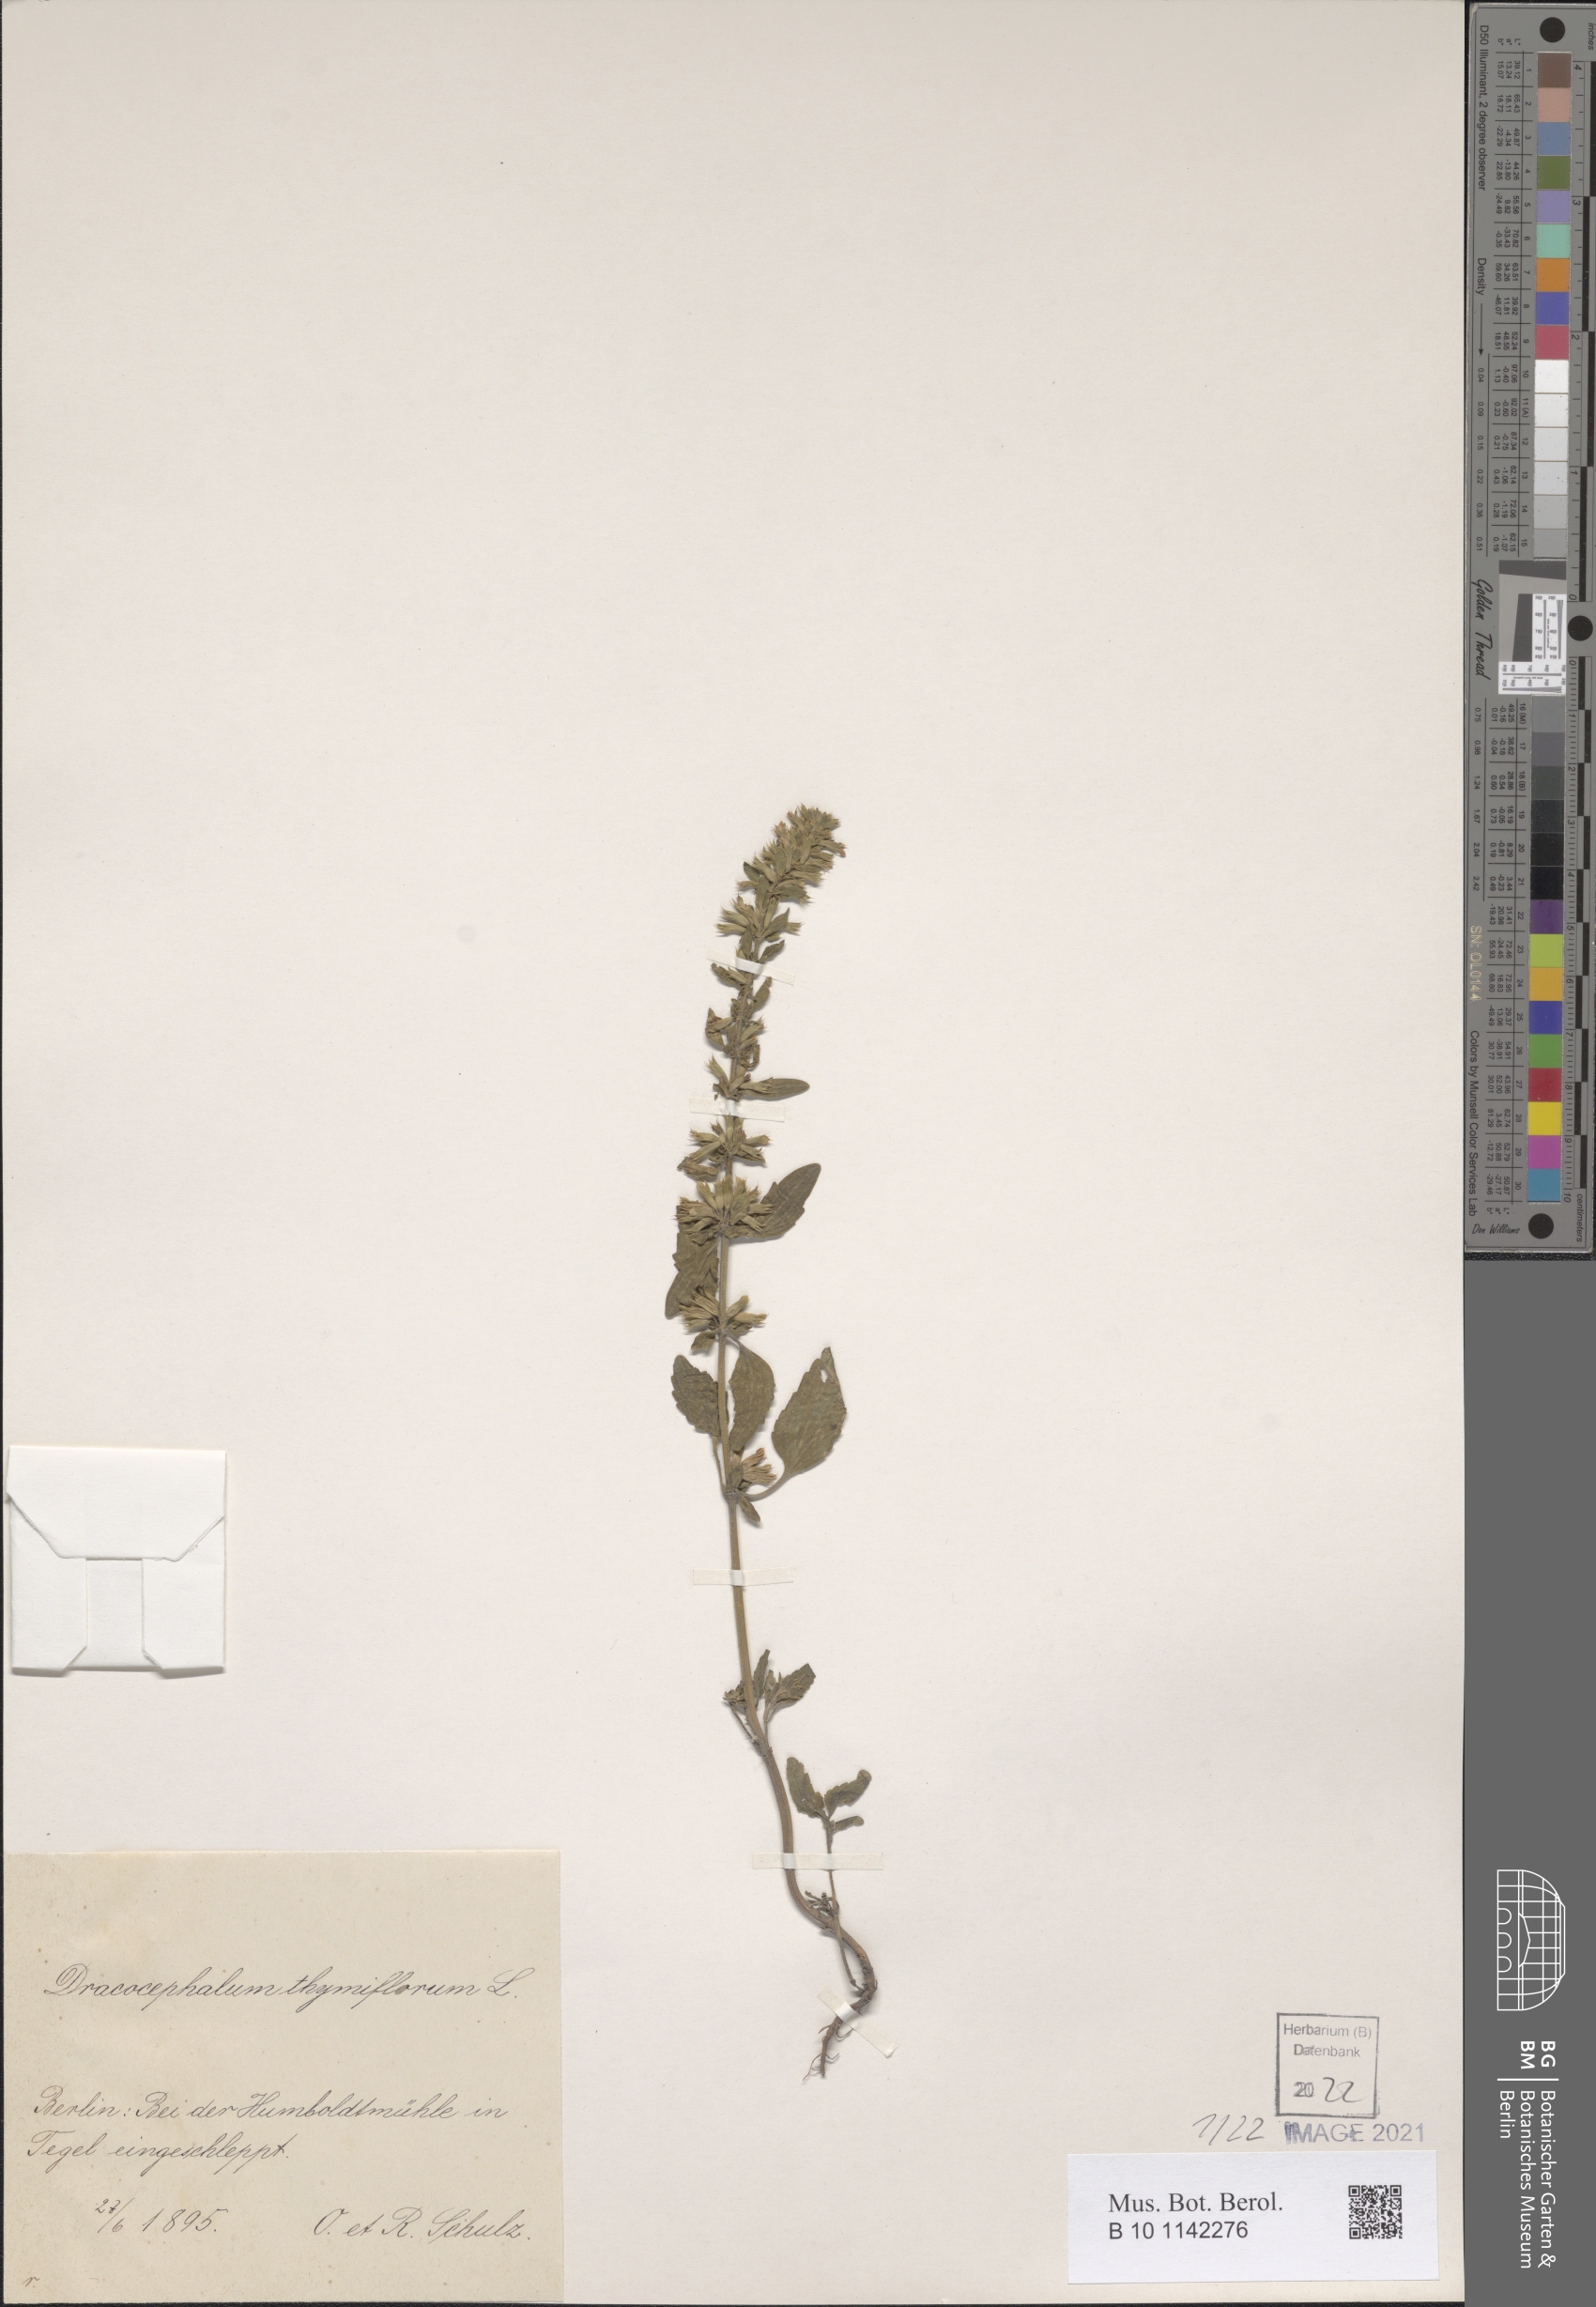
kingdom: Plantae
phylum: Tracheophyta
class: Magnoliopsida
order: Lamiales
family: Lamiaceae
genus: Dracocephalum
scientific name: Dracocephalum thymiflorum
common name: Thymeleaf dragonhead
